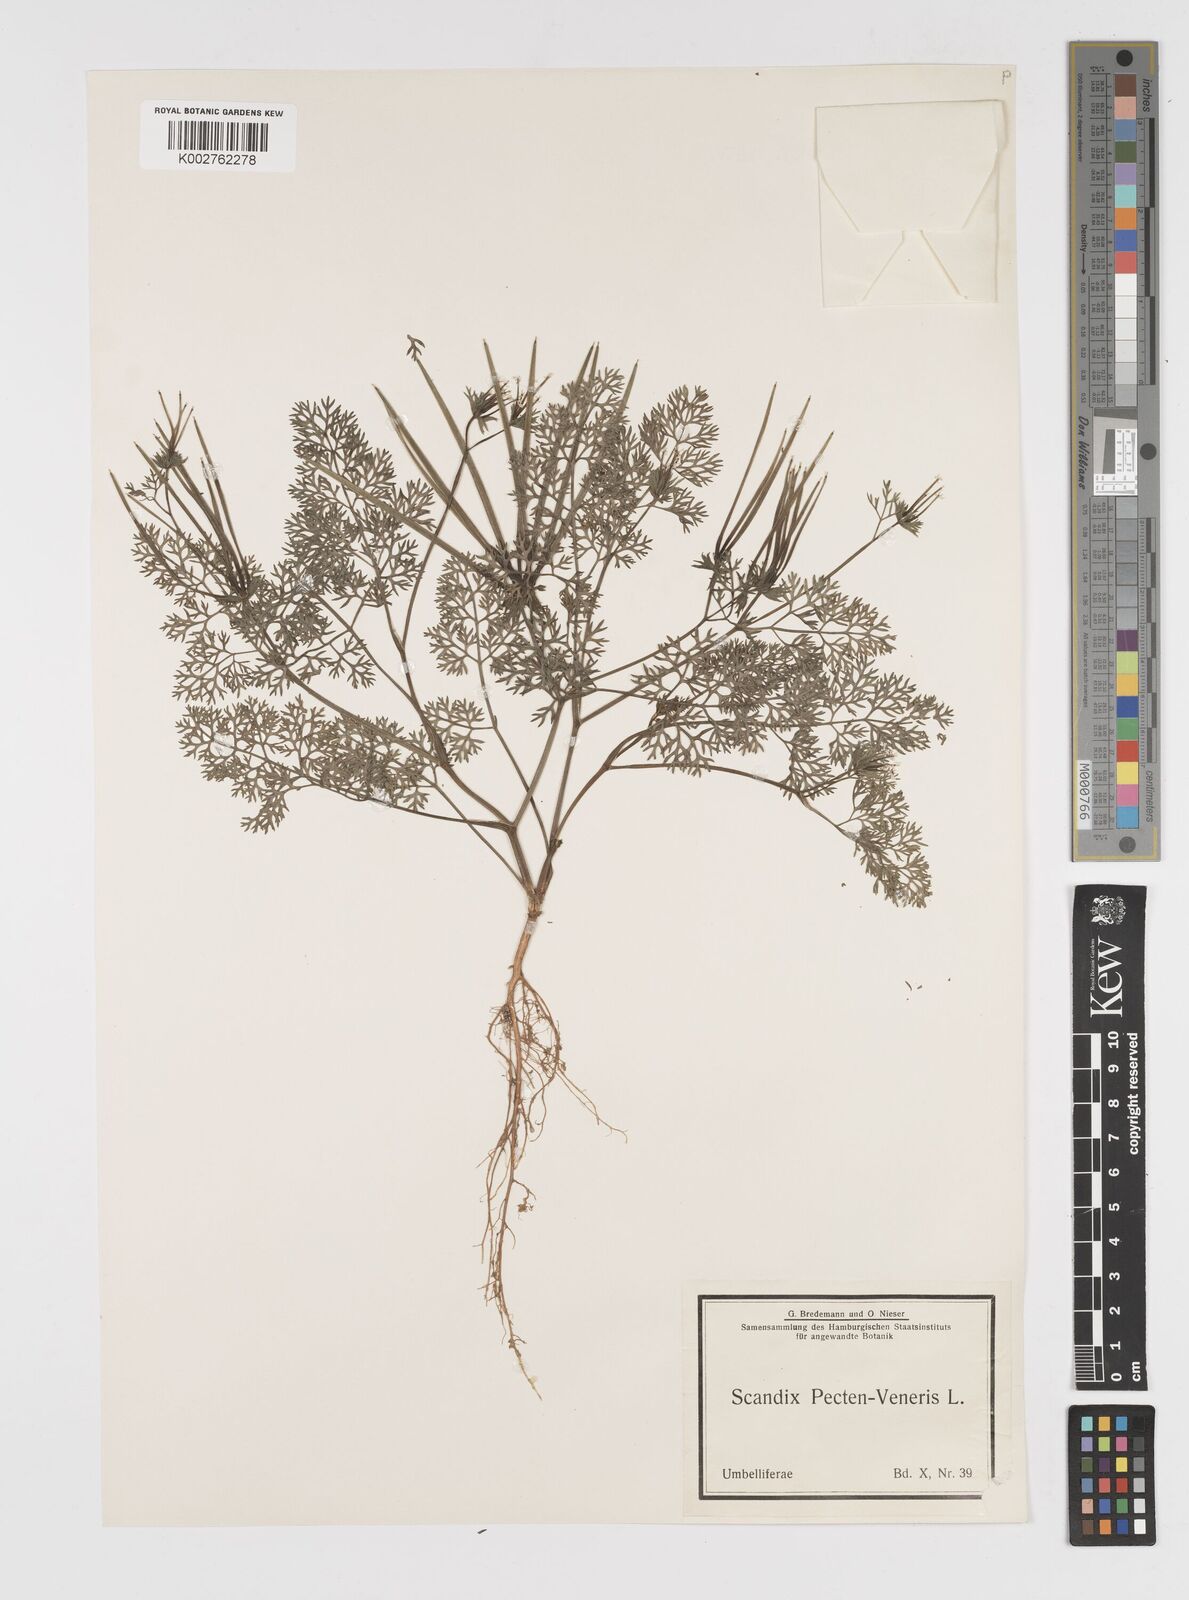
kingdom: Plantae
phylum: Tracheophyta
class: Magnoliopsida
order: Apiales
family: Apiaceae
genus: Scandix
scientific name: Scandix pecten-veneris
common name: Shepherd's-needle
